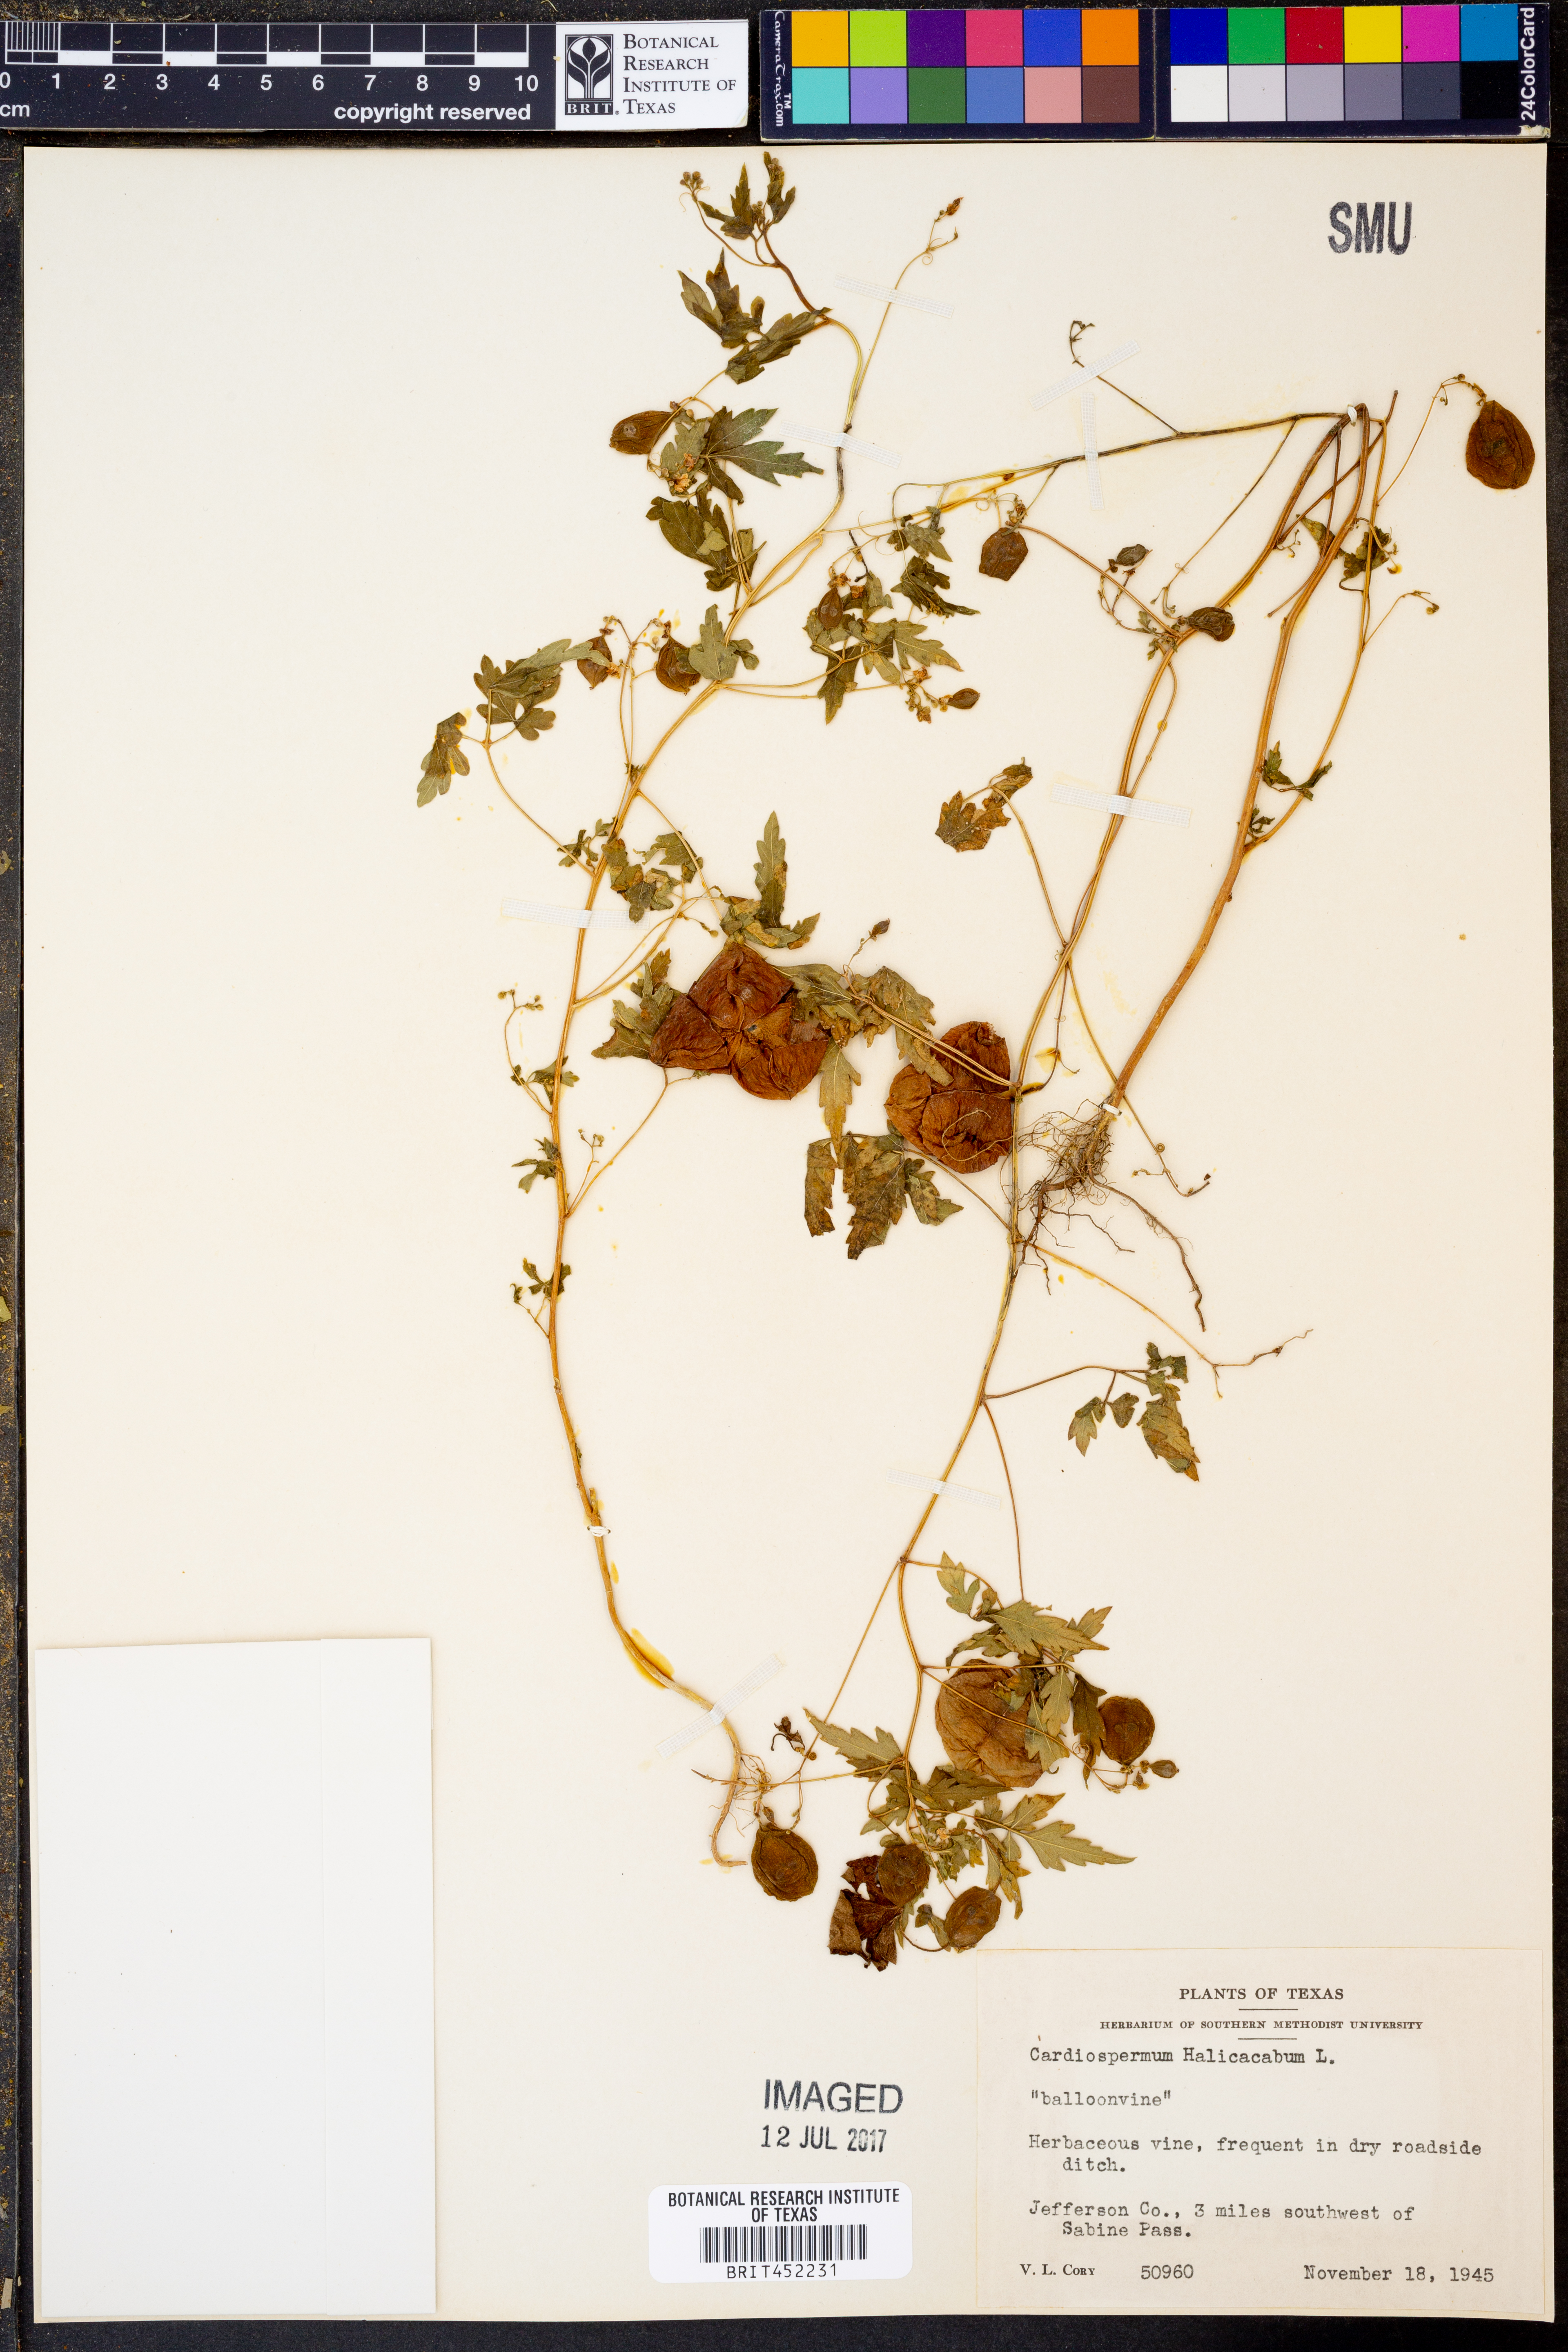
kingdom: Plantae
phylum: Tracheophyta
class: Magnoliopsida
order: Sapindales
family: Sapindaceae
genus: Cardiospermum
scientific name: Cardiospermum halicacabum
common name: Balloon vine
